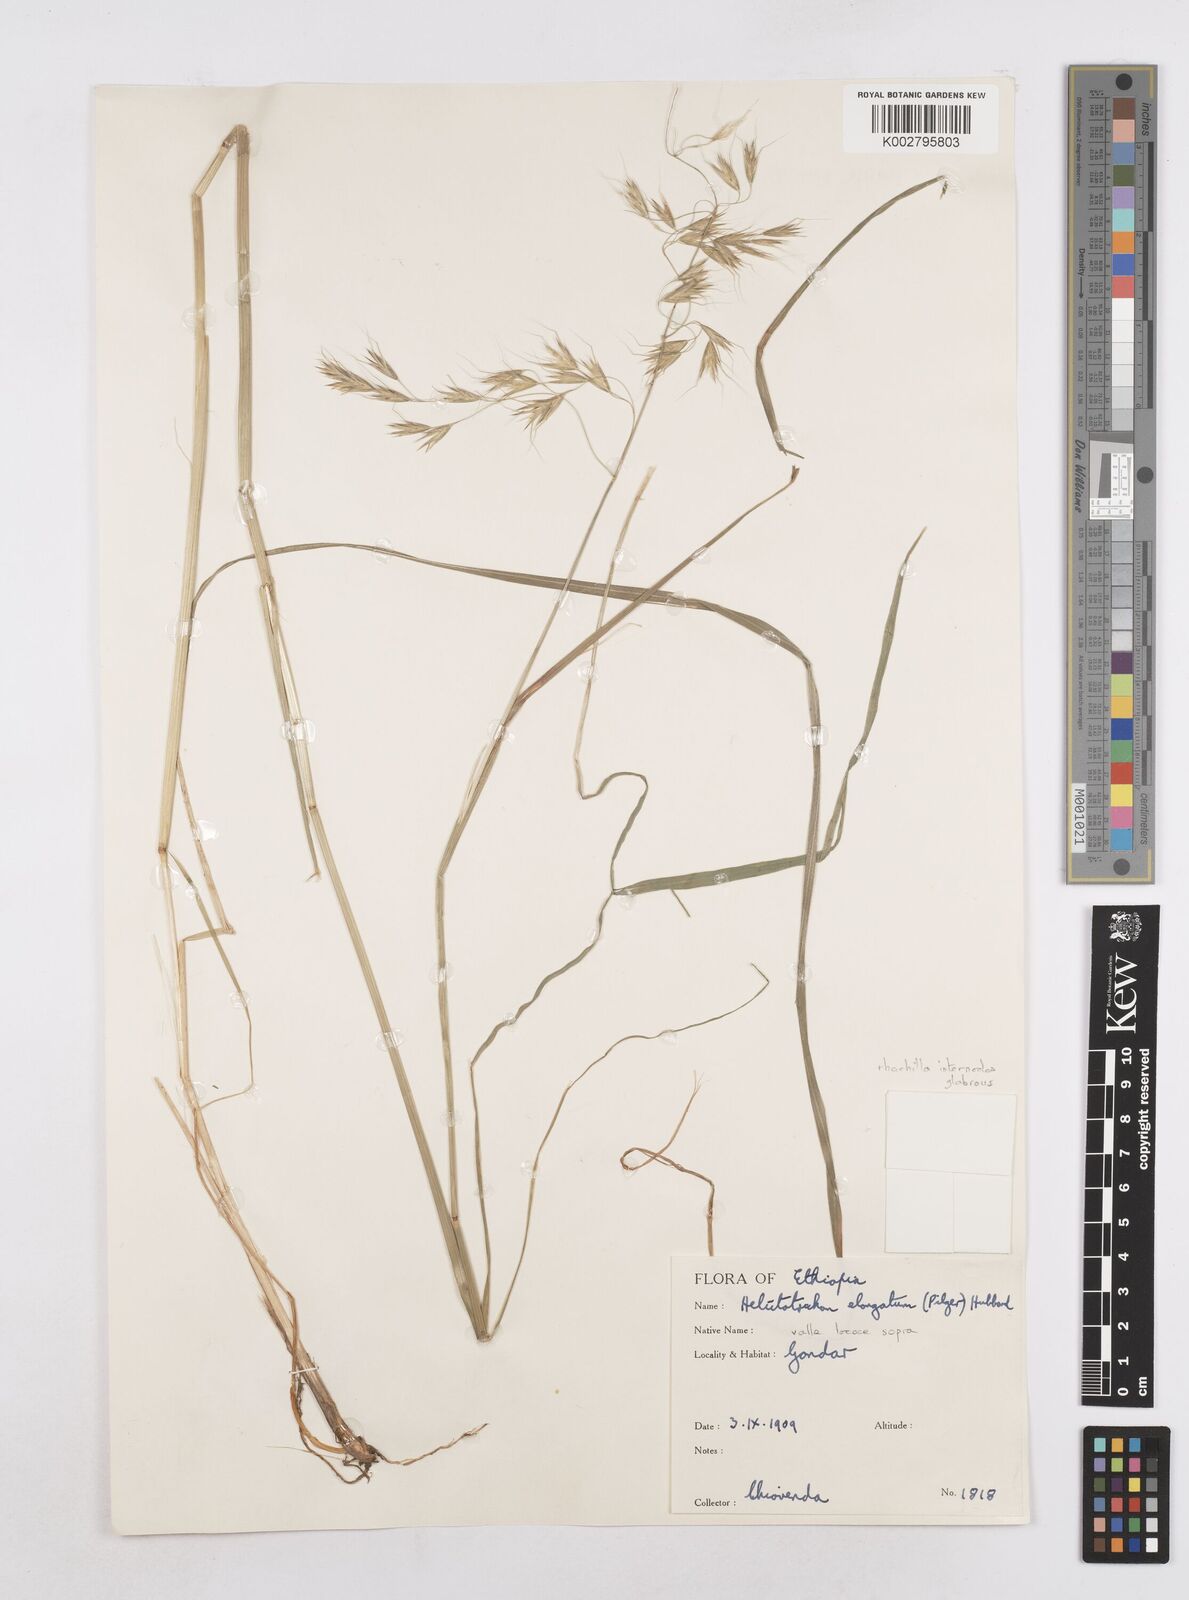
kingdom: Plantae
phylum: Tracheophyta
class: Liliopsida
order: Poales
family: Poaceae
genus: Trisetopsis
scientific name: Trisetopsis elongata
